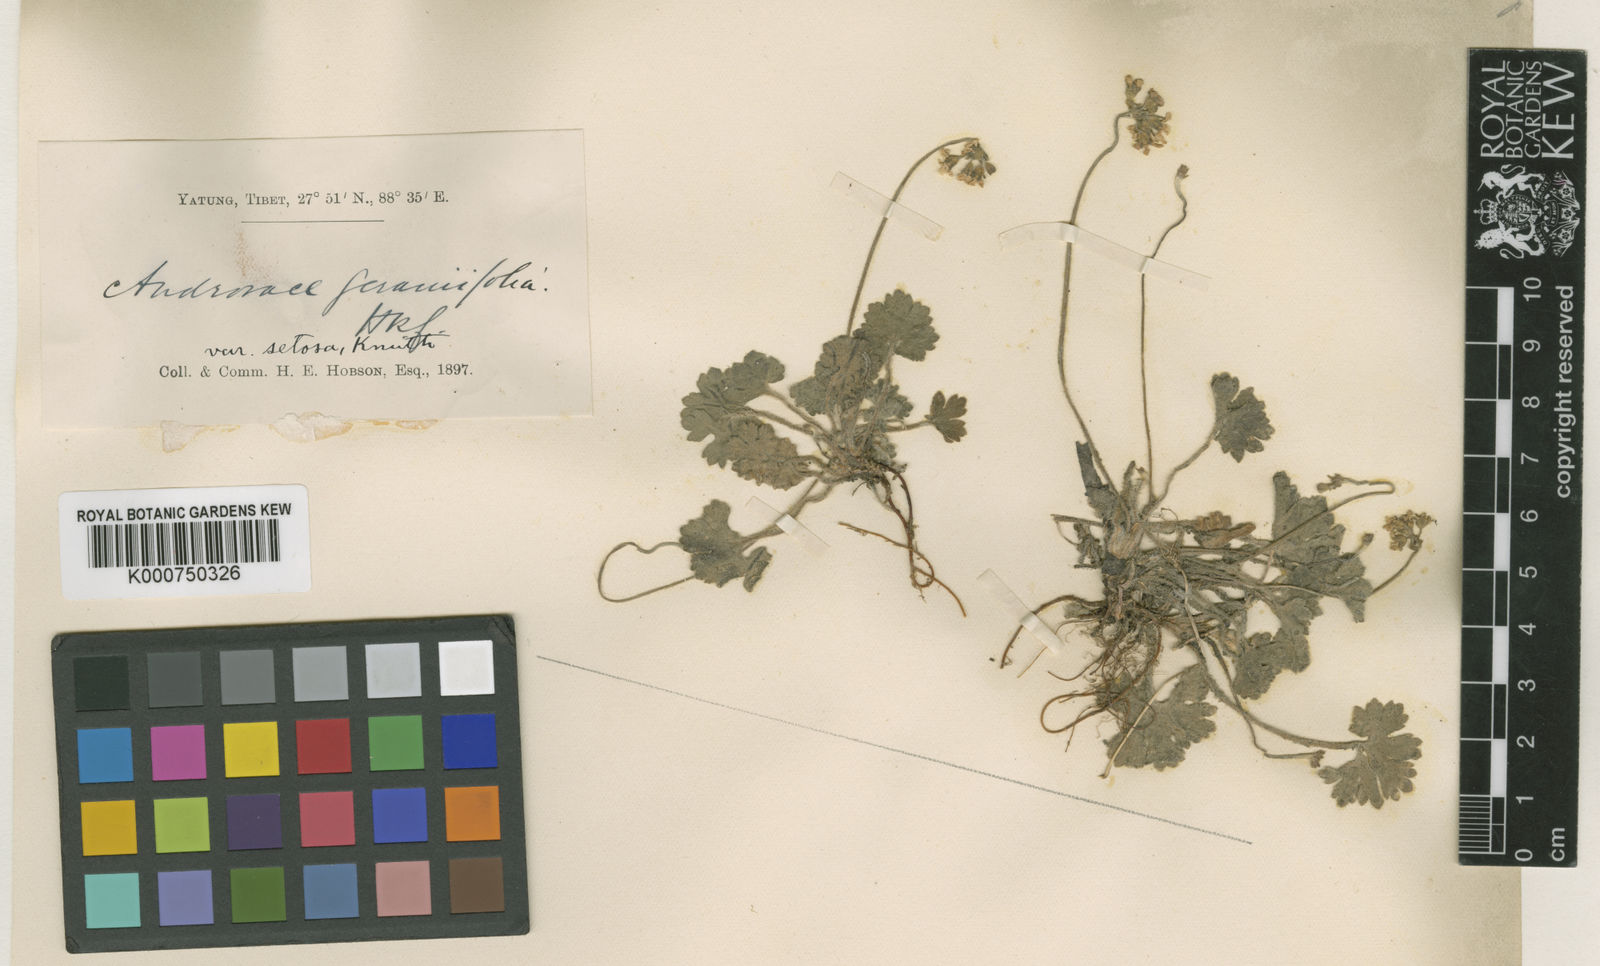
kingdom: Plantae
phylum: Tracheophyta
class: Magnoliopsida
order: Ericales
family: Primulaceae
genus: Androsace
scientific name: Androsace geraniifolia
